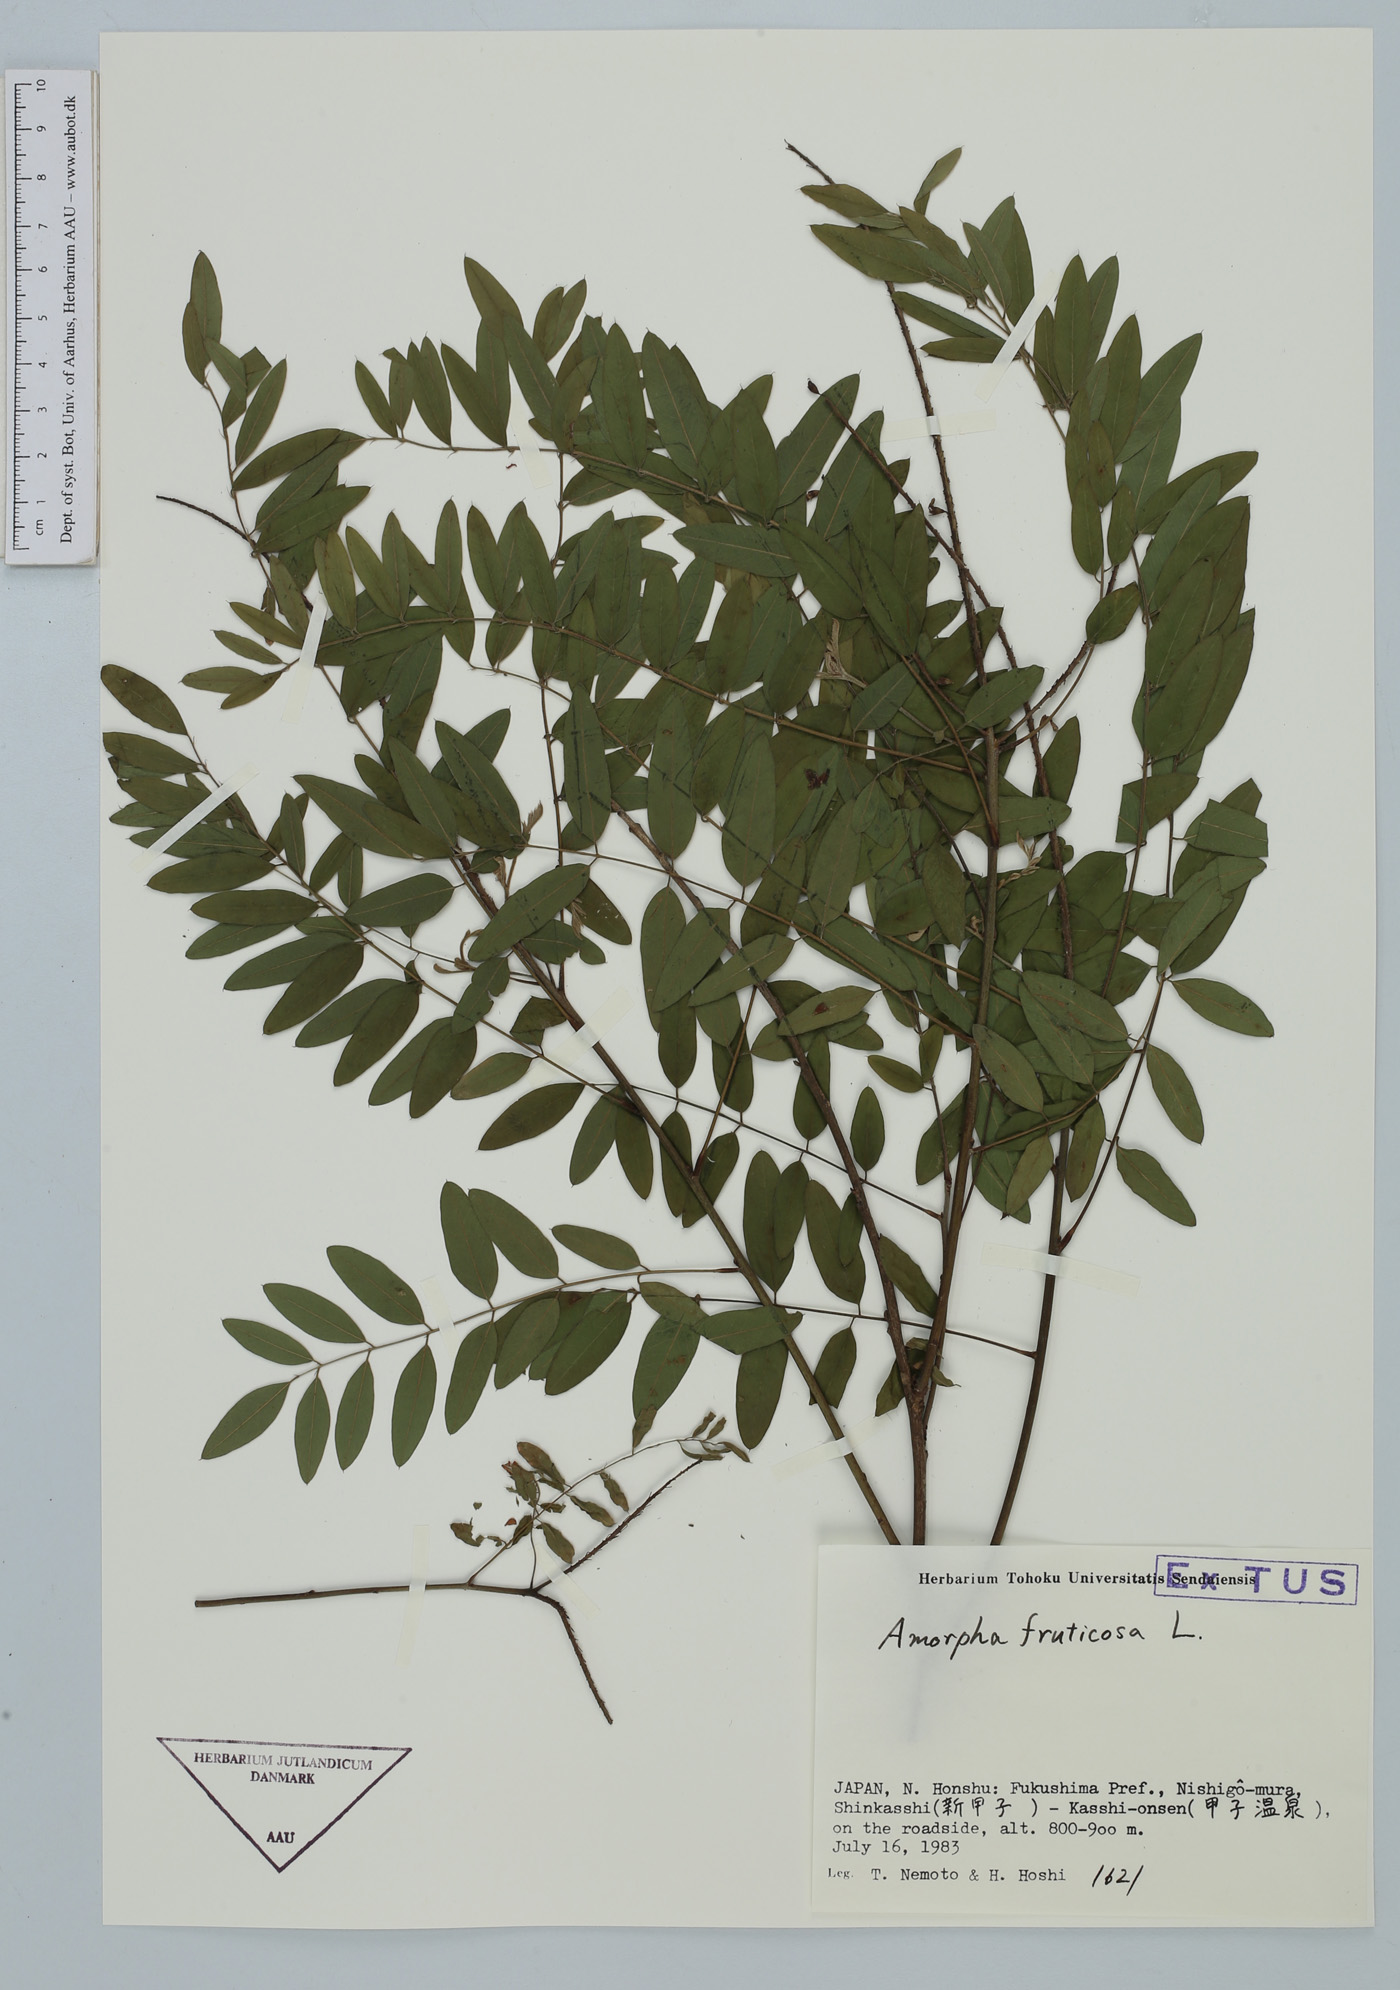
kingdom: Plantae
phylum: Tracheophyta
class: Magnoliopsida
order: Fabales
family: Fabaceae
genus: Amorpha
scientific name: Amorpha fruticosa
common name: False indigo
